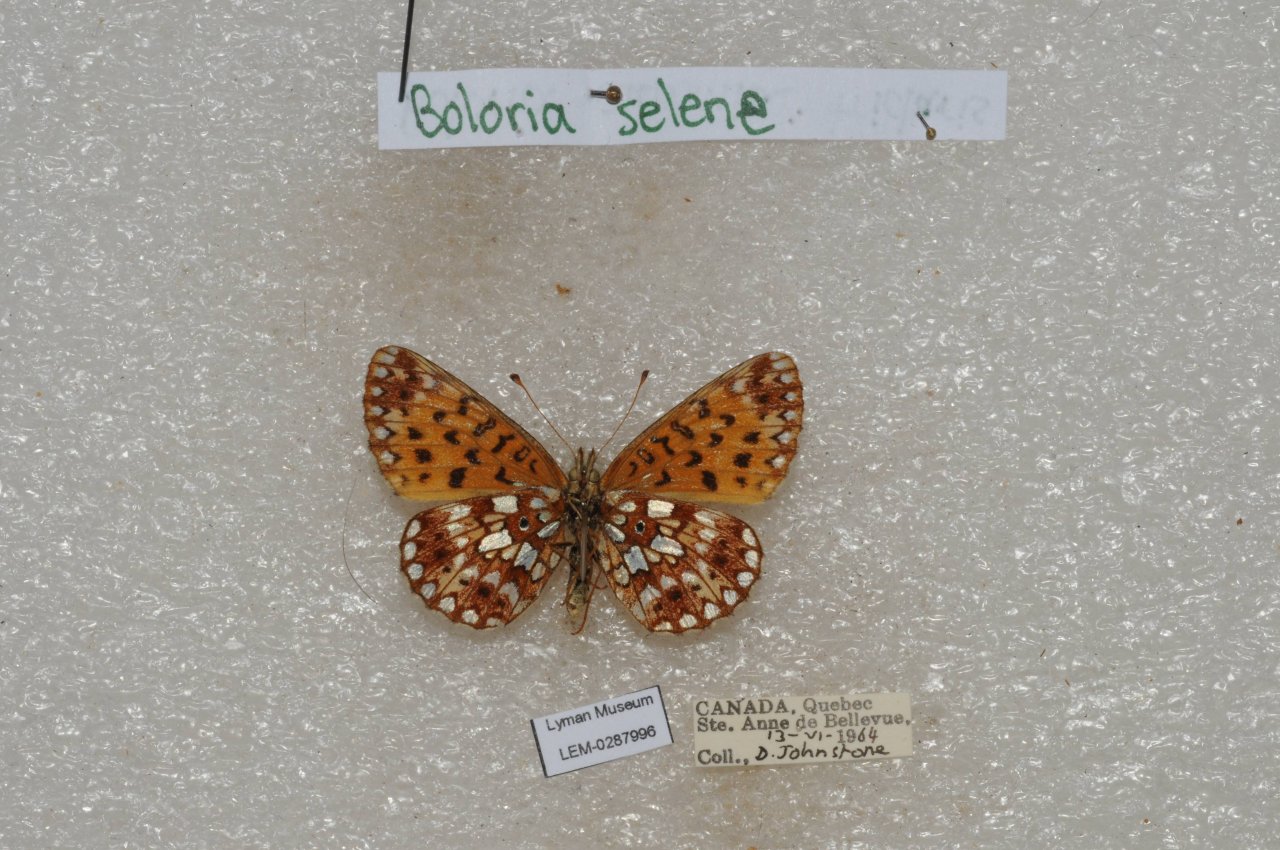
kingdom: Animalia
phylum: Arthropoda
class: Insecta
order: Lepidoptera
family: Nymphalidae
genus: Boloria
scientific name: Boloria selene
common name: Silver-bordered Fritillary
